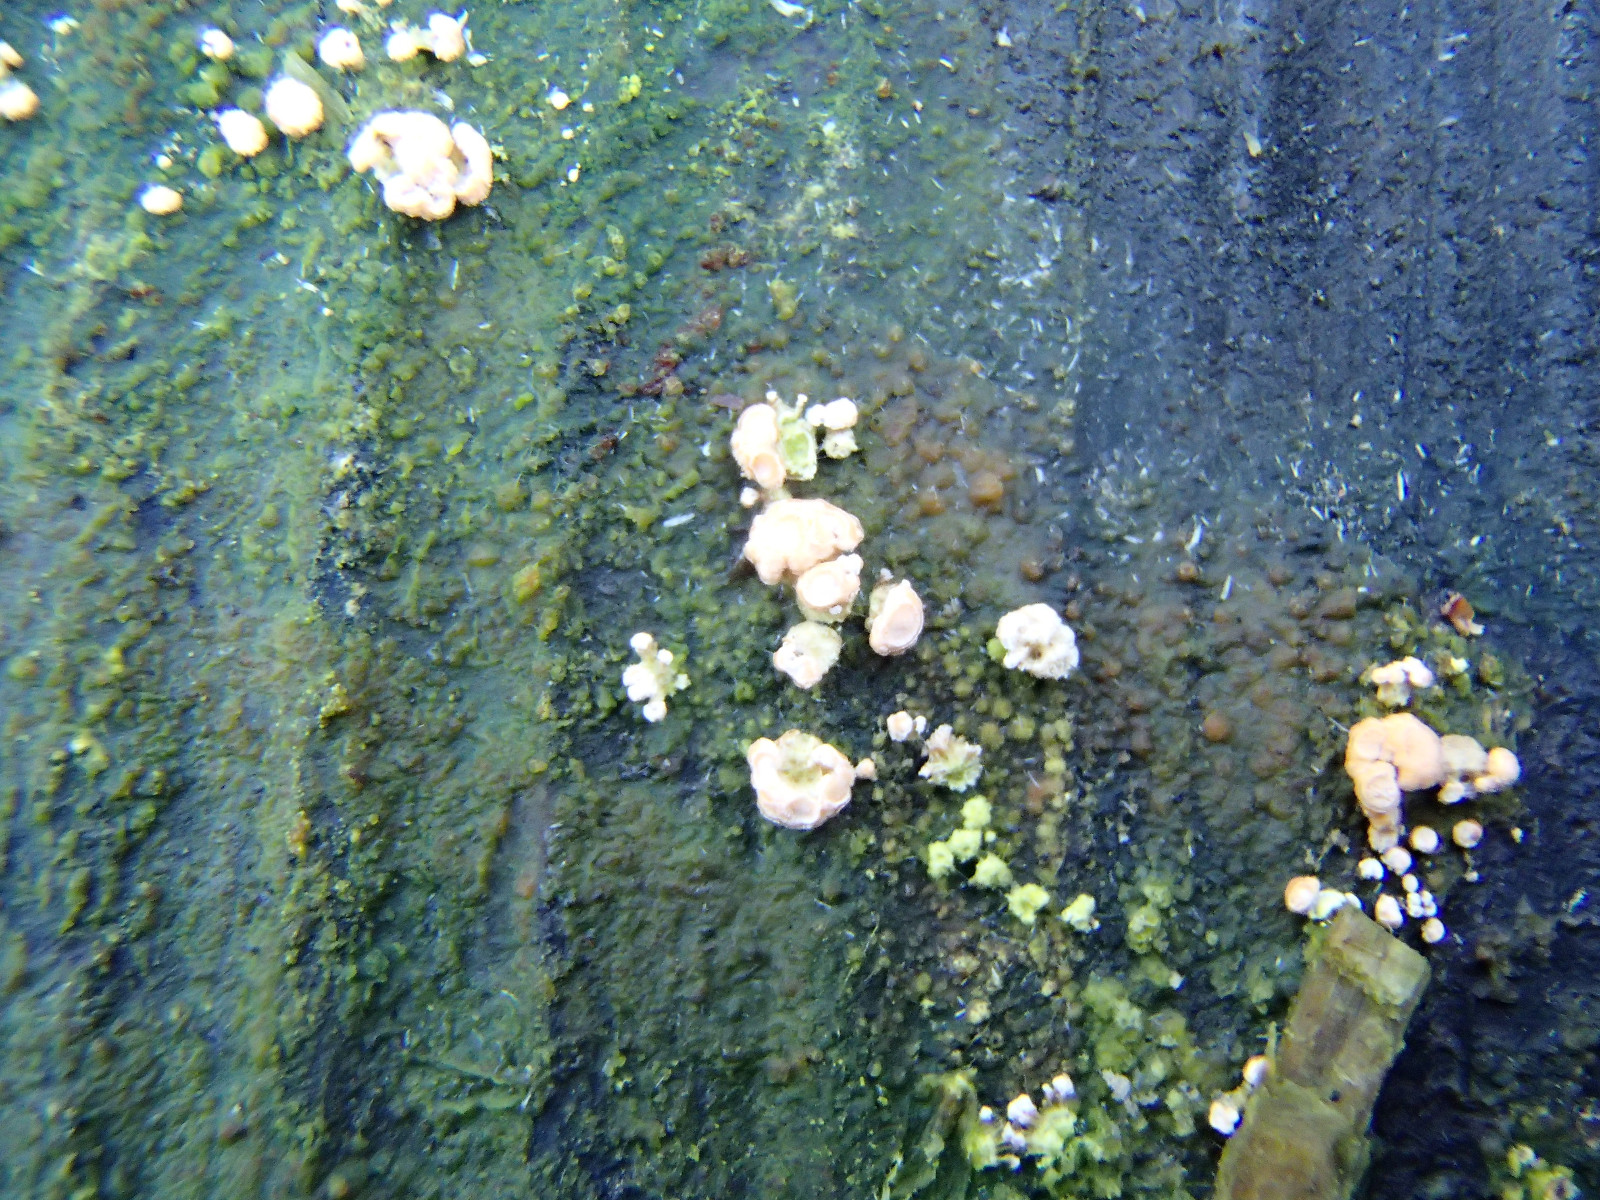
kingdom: Fungi
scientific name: Fungi
